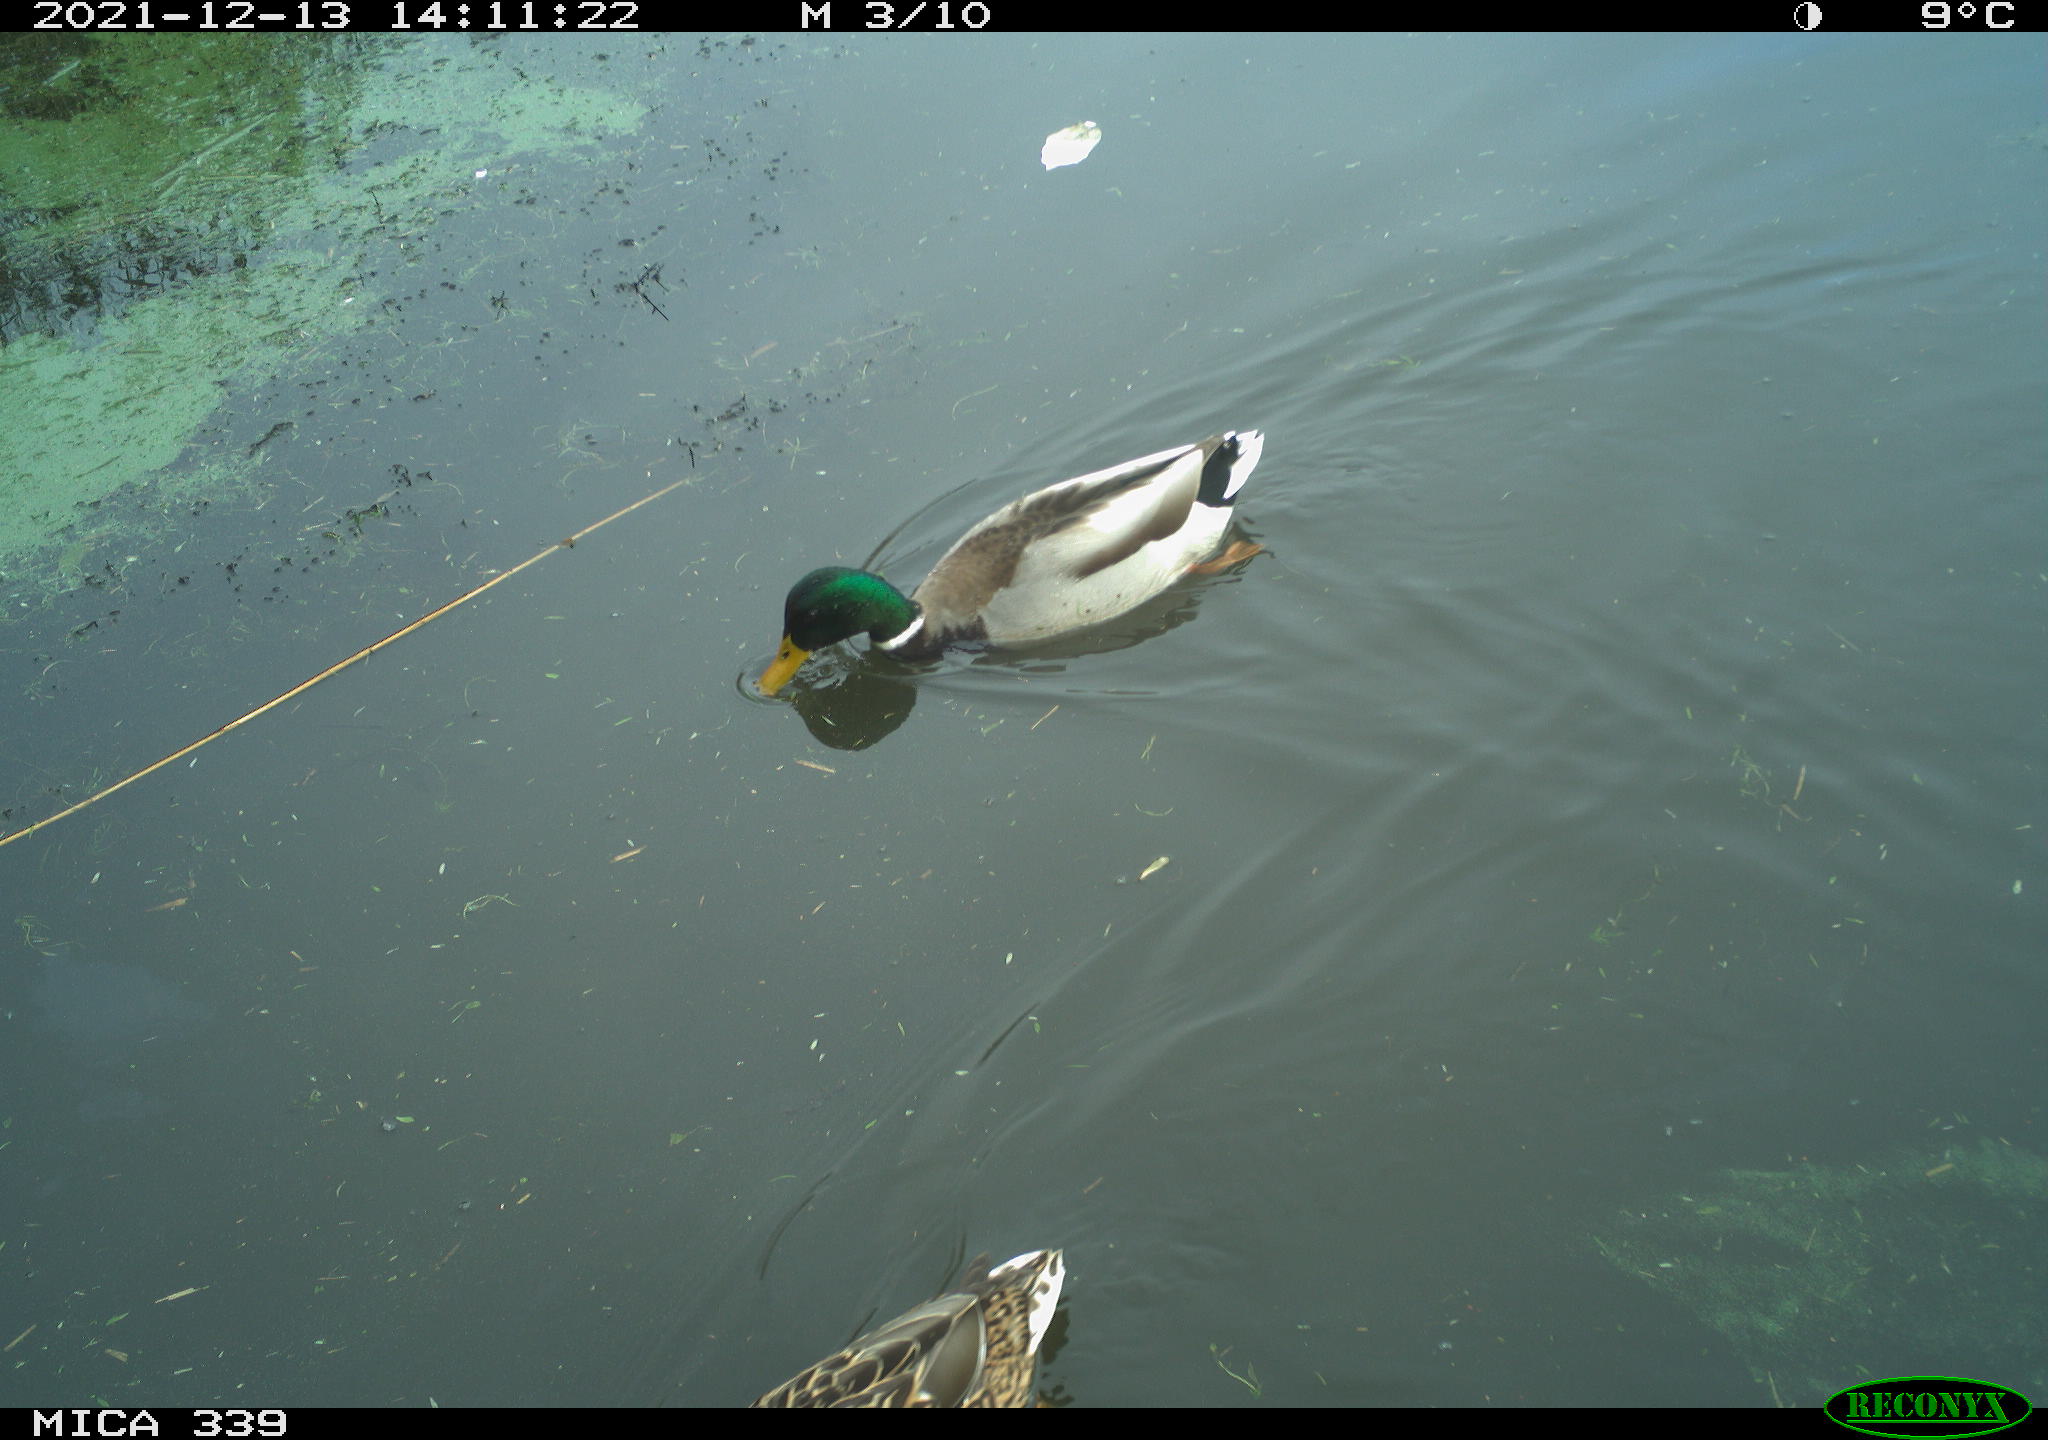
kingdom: Animalia
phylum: Chordata
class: Aves
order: Anseriformes
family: Anatidae
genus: Anas
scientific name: Anas platyrhynchos
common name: Mallard
